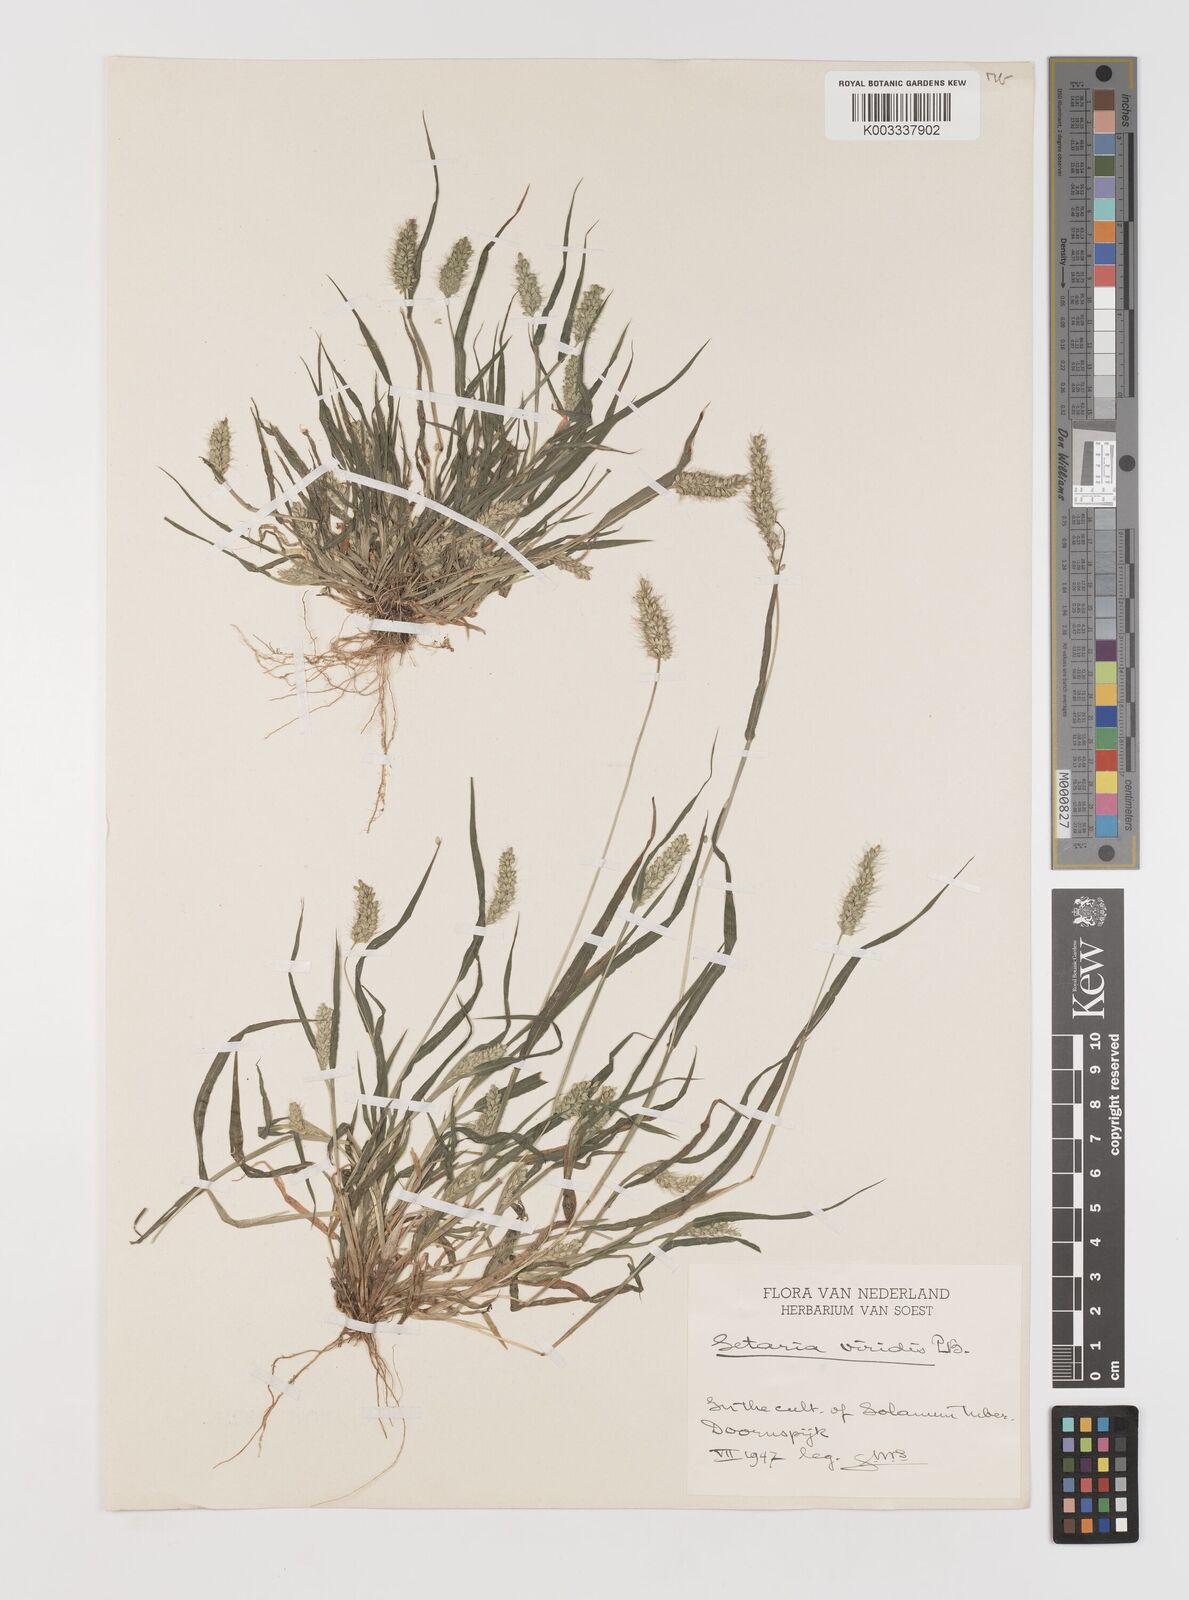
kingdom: Plantae
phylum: Tracheophyta
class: Liliopsida
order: Poales
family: Poaceae
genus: Setaria
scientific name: Setaria viridis
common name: Green bristlegrass
